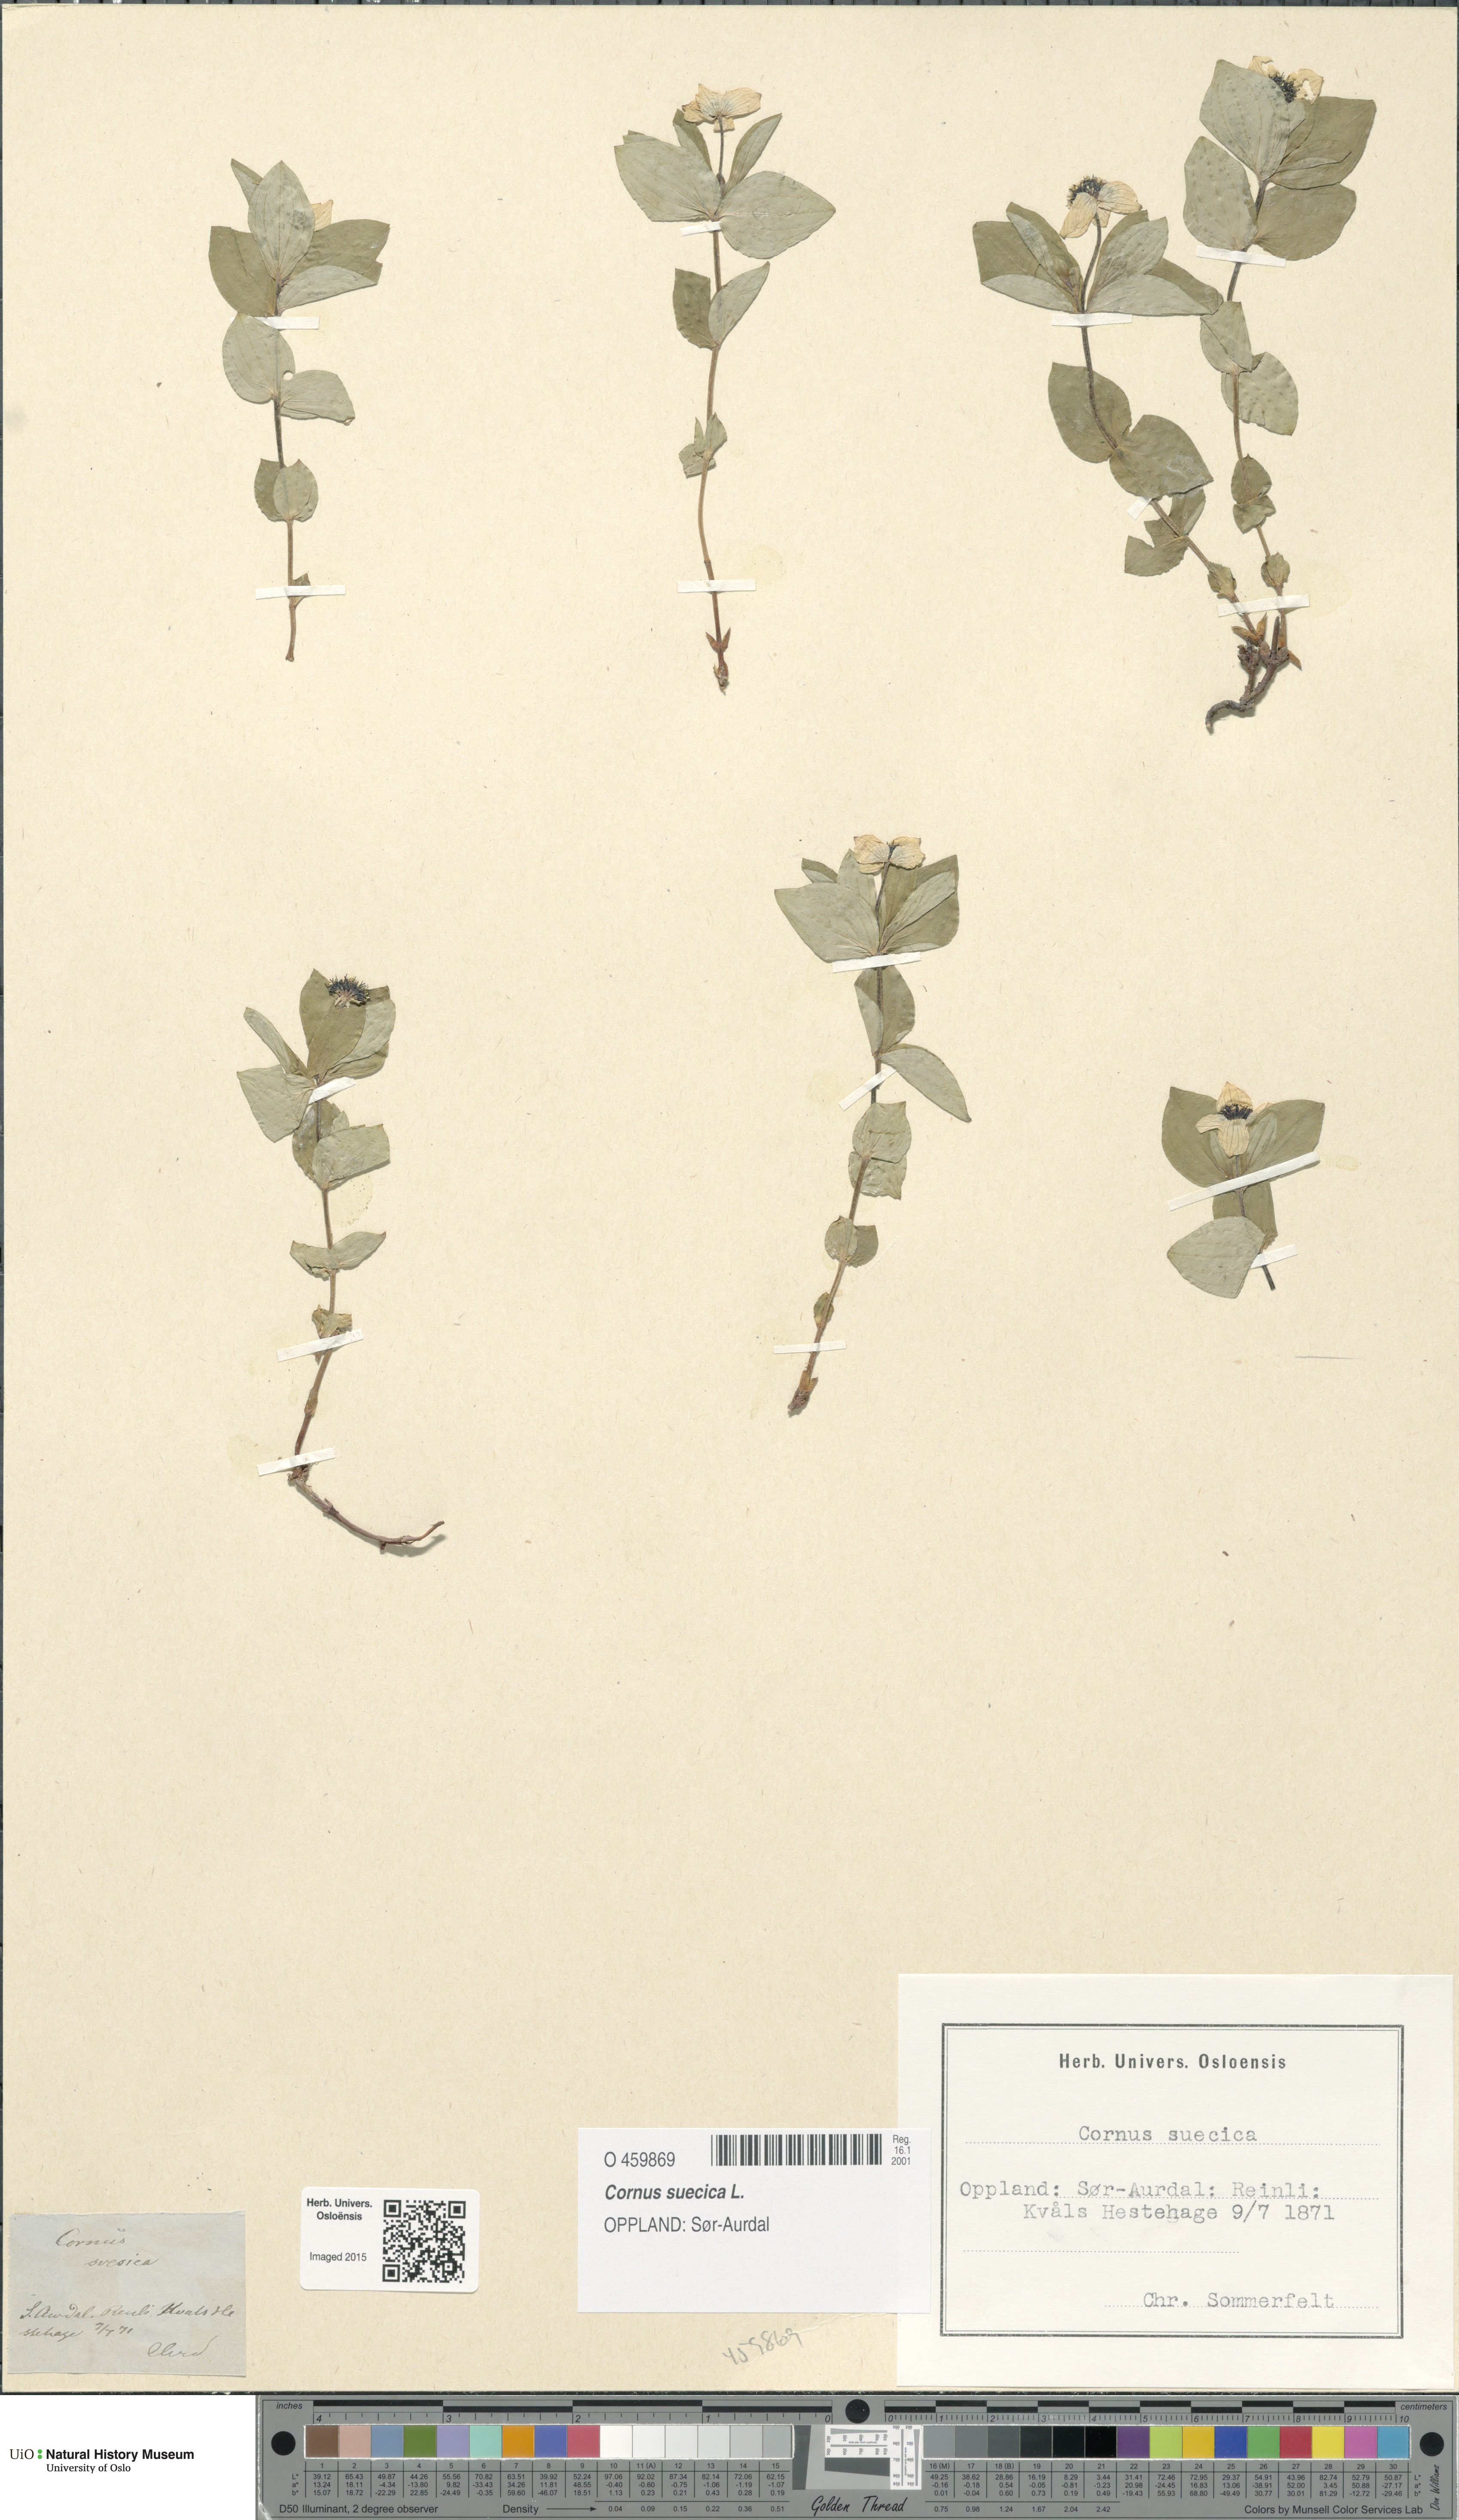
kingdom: Plantae
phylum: Tracheophyta
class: Magnoliopsida
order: Cornales
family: Cornaceae
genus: Cornus
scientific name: Cornus suecica
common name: Dwarf cornel
